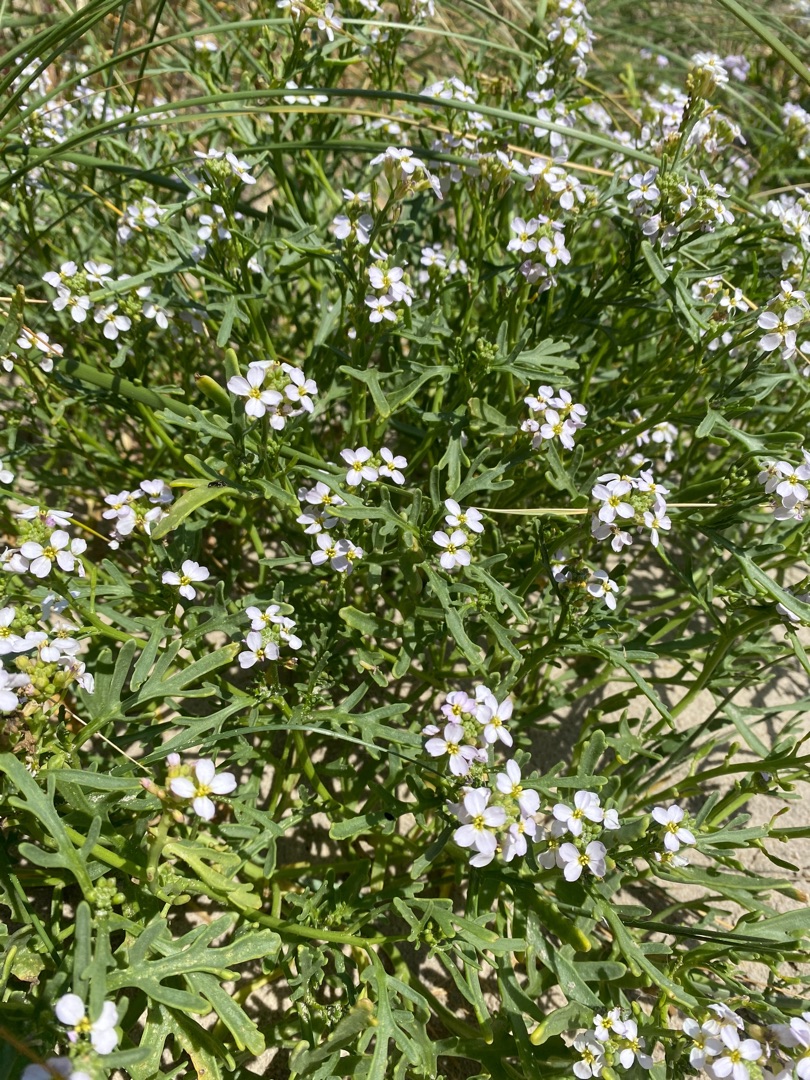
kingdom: Plantae
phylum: Tracheophyta
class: Magnoliopsida
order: Brassicales
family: Brassicaceae
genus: Cakile
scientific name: Cakile maritima
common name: Strandsennep
